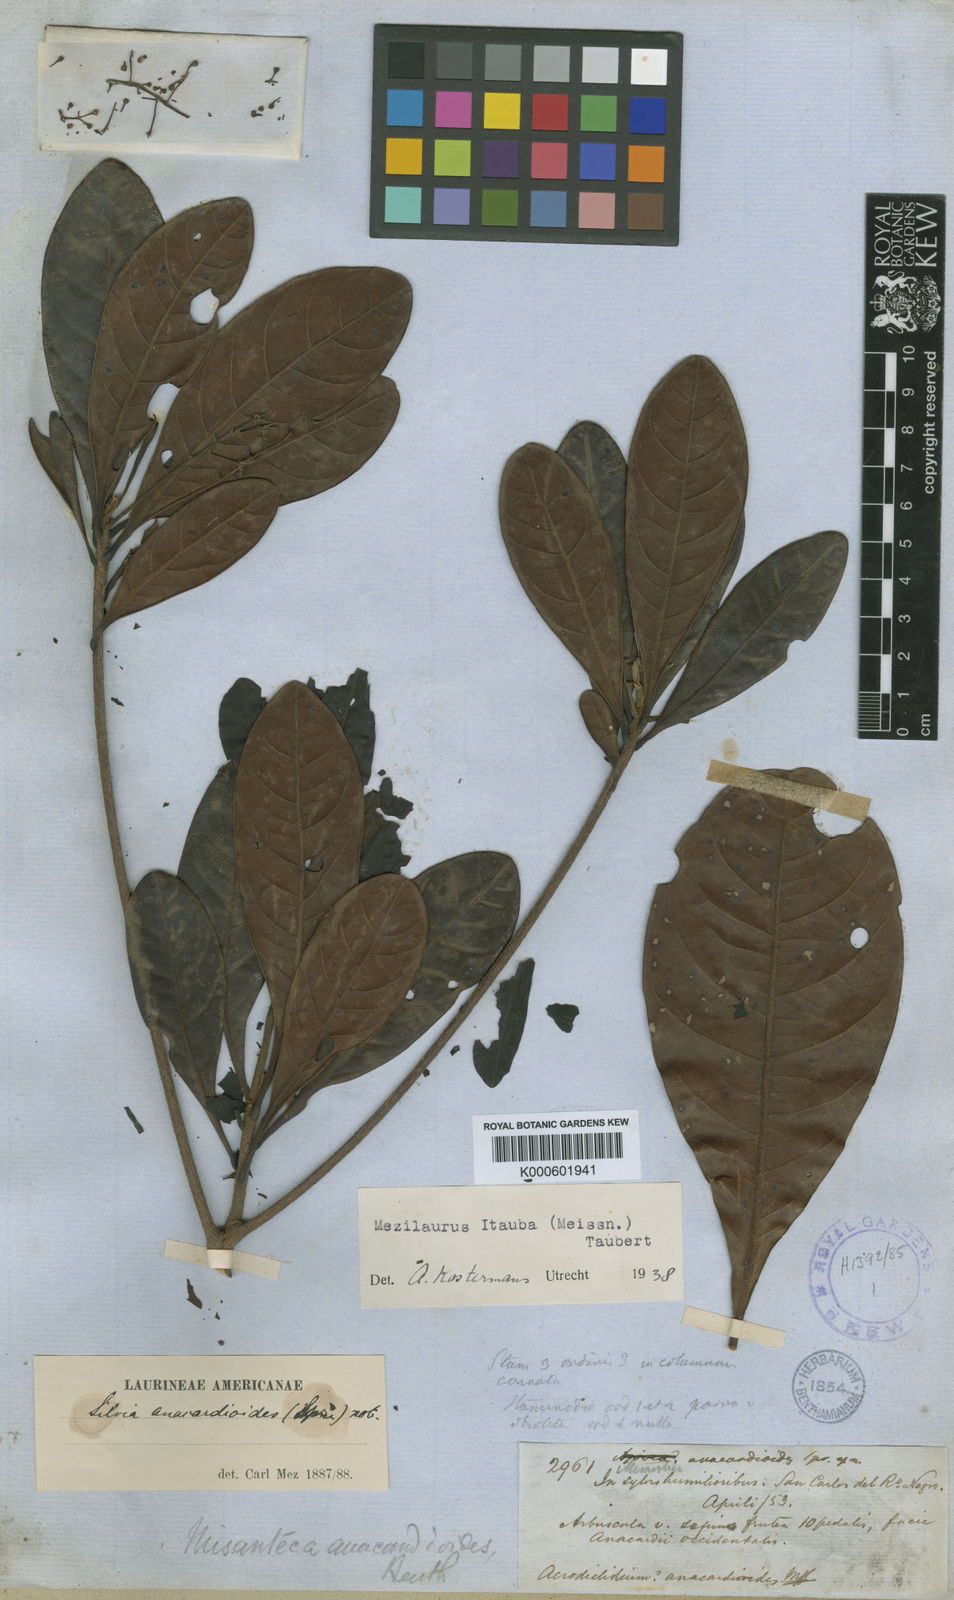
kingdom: Plantae
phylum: Tracheophyta
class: Magnoliopsida
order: Laurales
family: Lauraceae
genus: Mezilaurus
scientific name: Mezilaurus ita-uba
